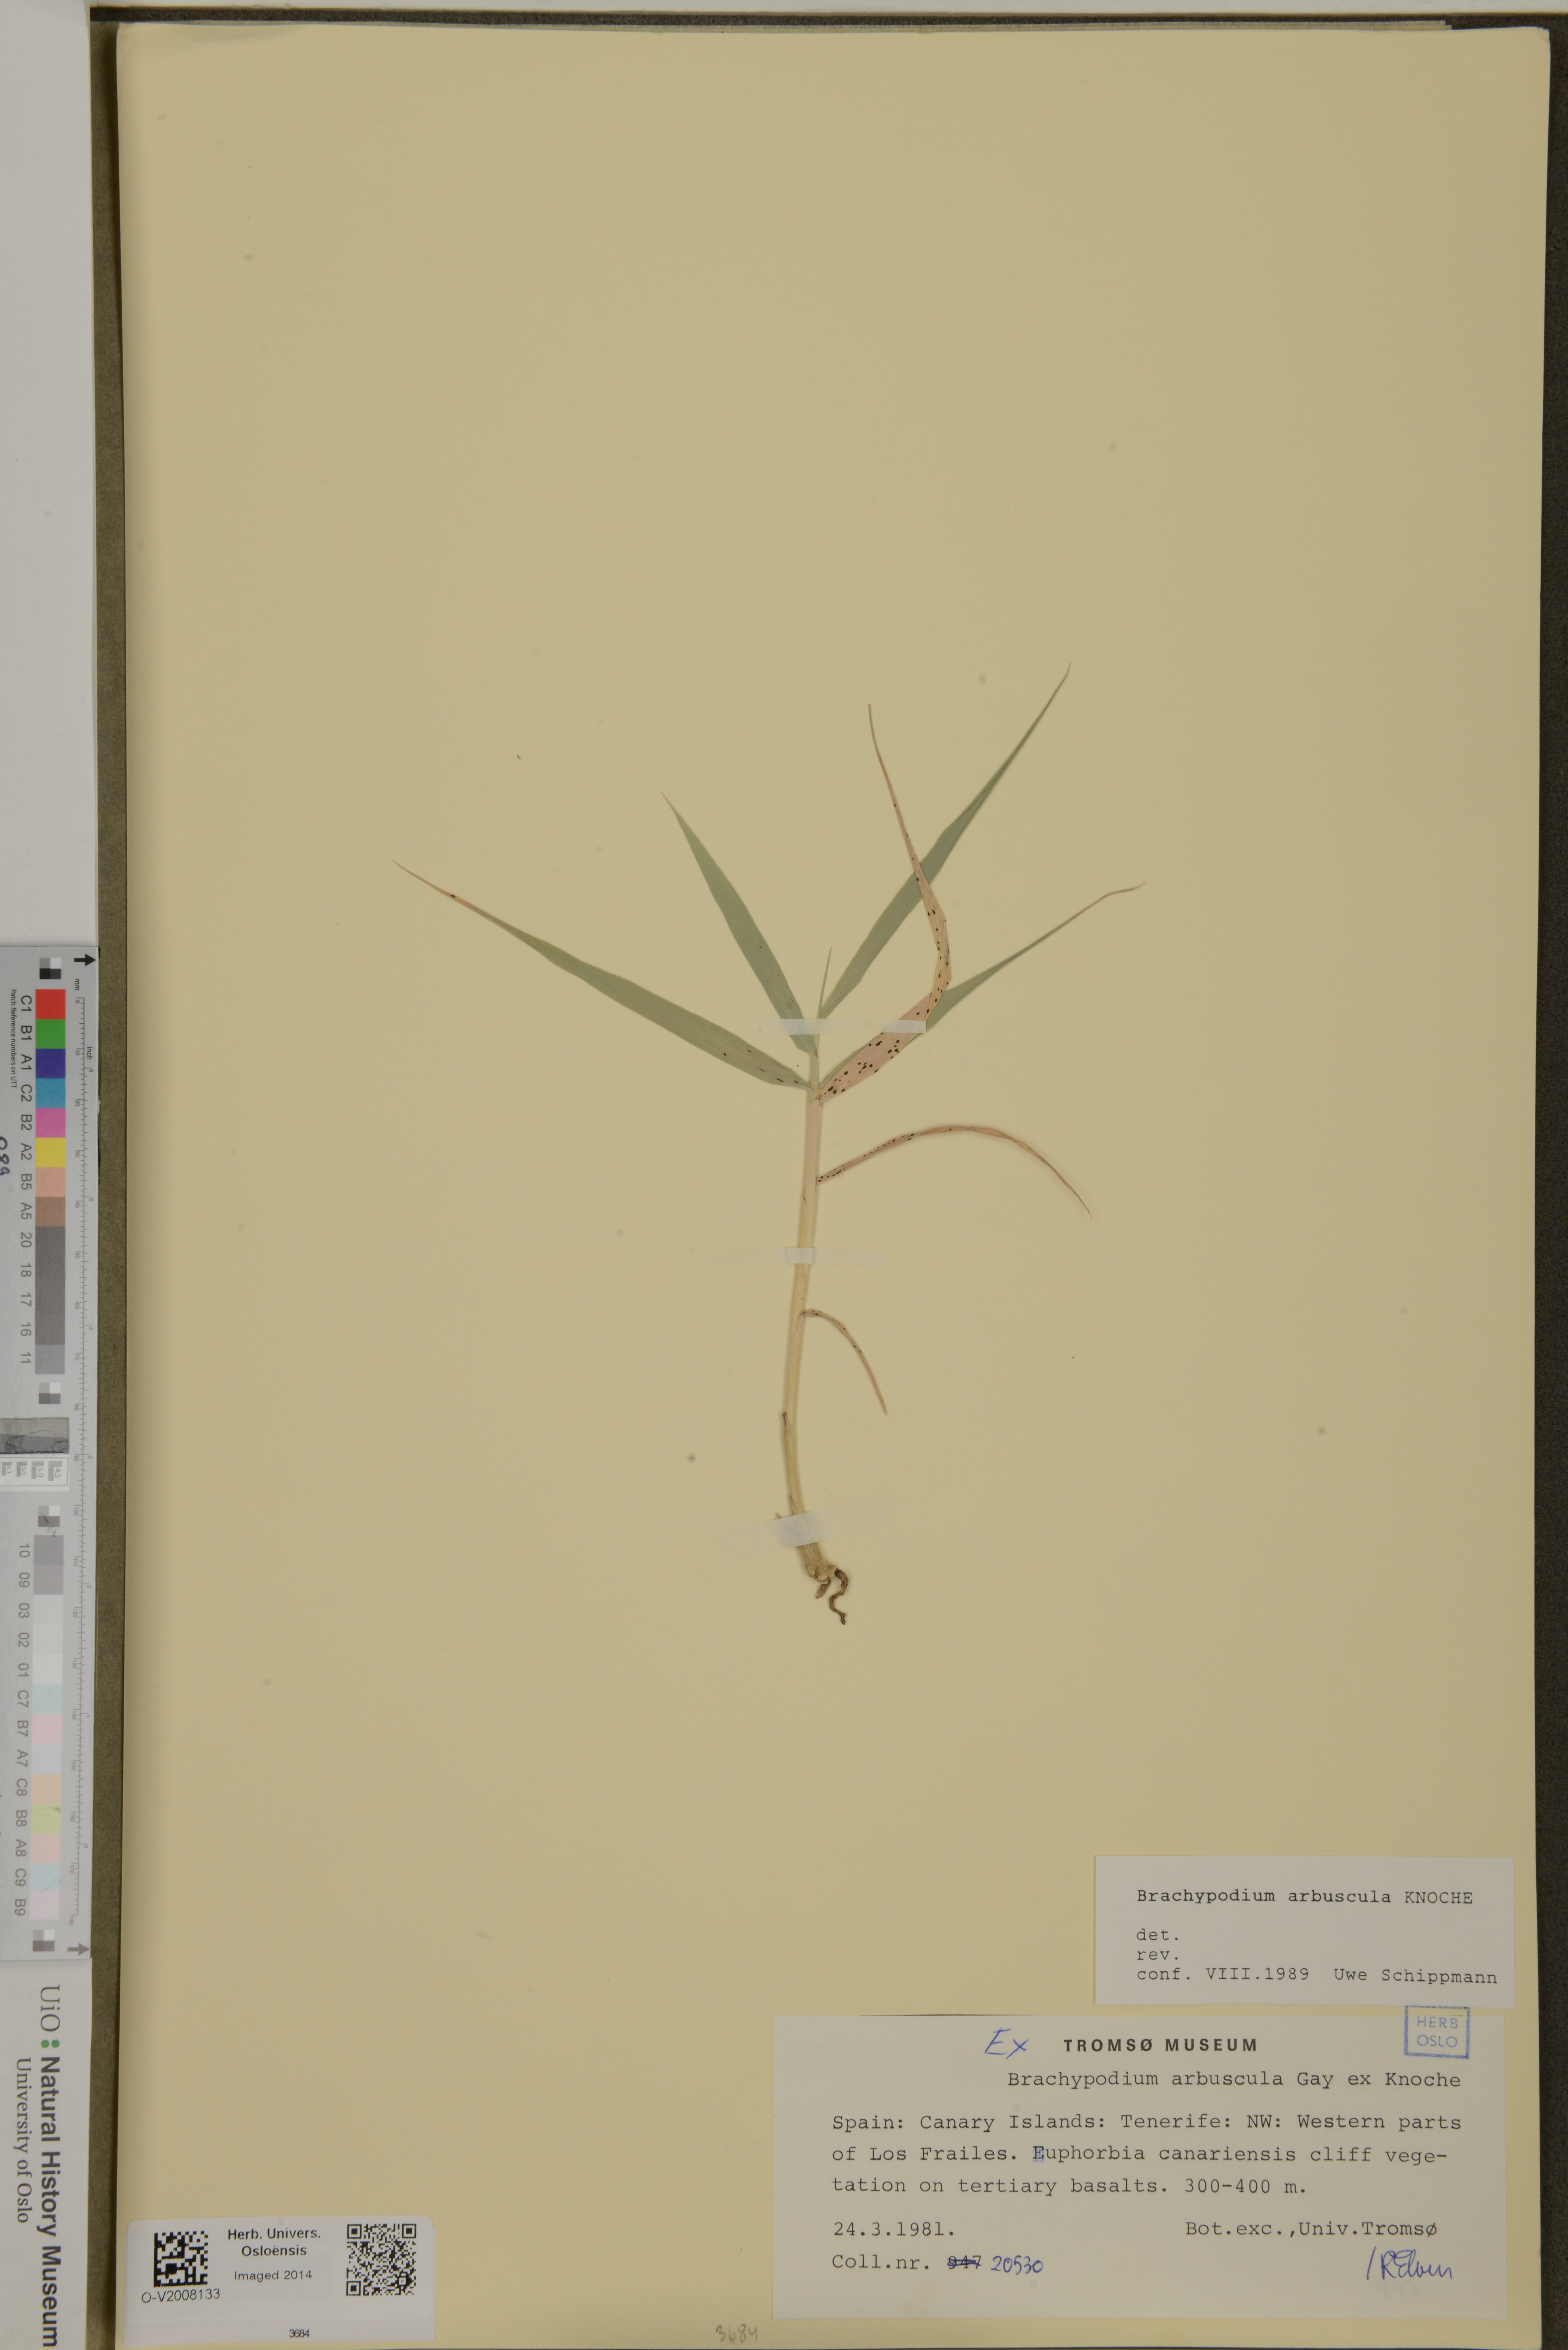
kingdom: Plantae
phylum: Tracheophyta
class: Liliopsida
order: Poales
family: Poaceae
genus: Brachypodium
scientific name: Brachypodium arbuscula
